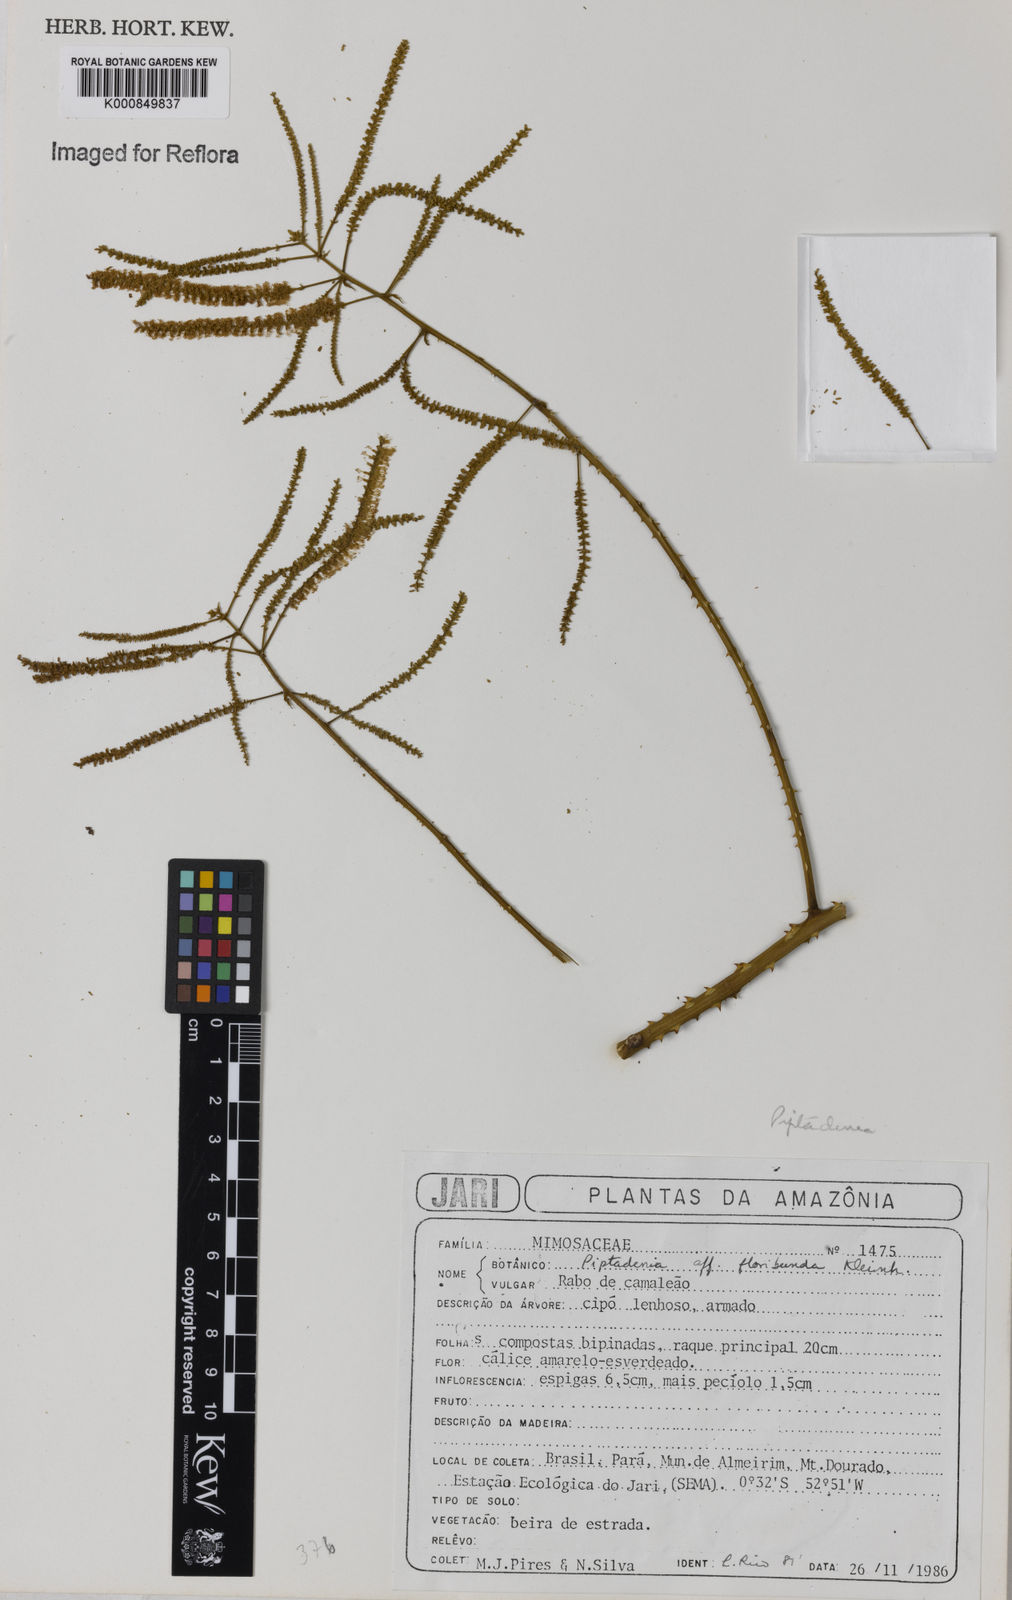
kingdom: Plantae
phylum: Tracheophyta
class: Magnoliopsida
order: Fabales
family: Fabaceae
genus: Piptadenia
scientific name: Piptadenia floribunda
